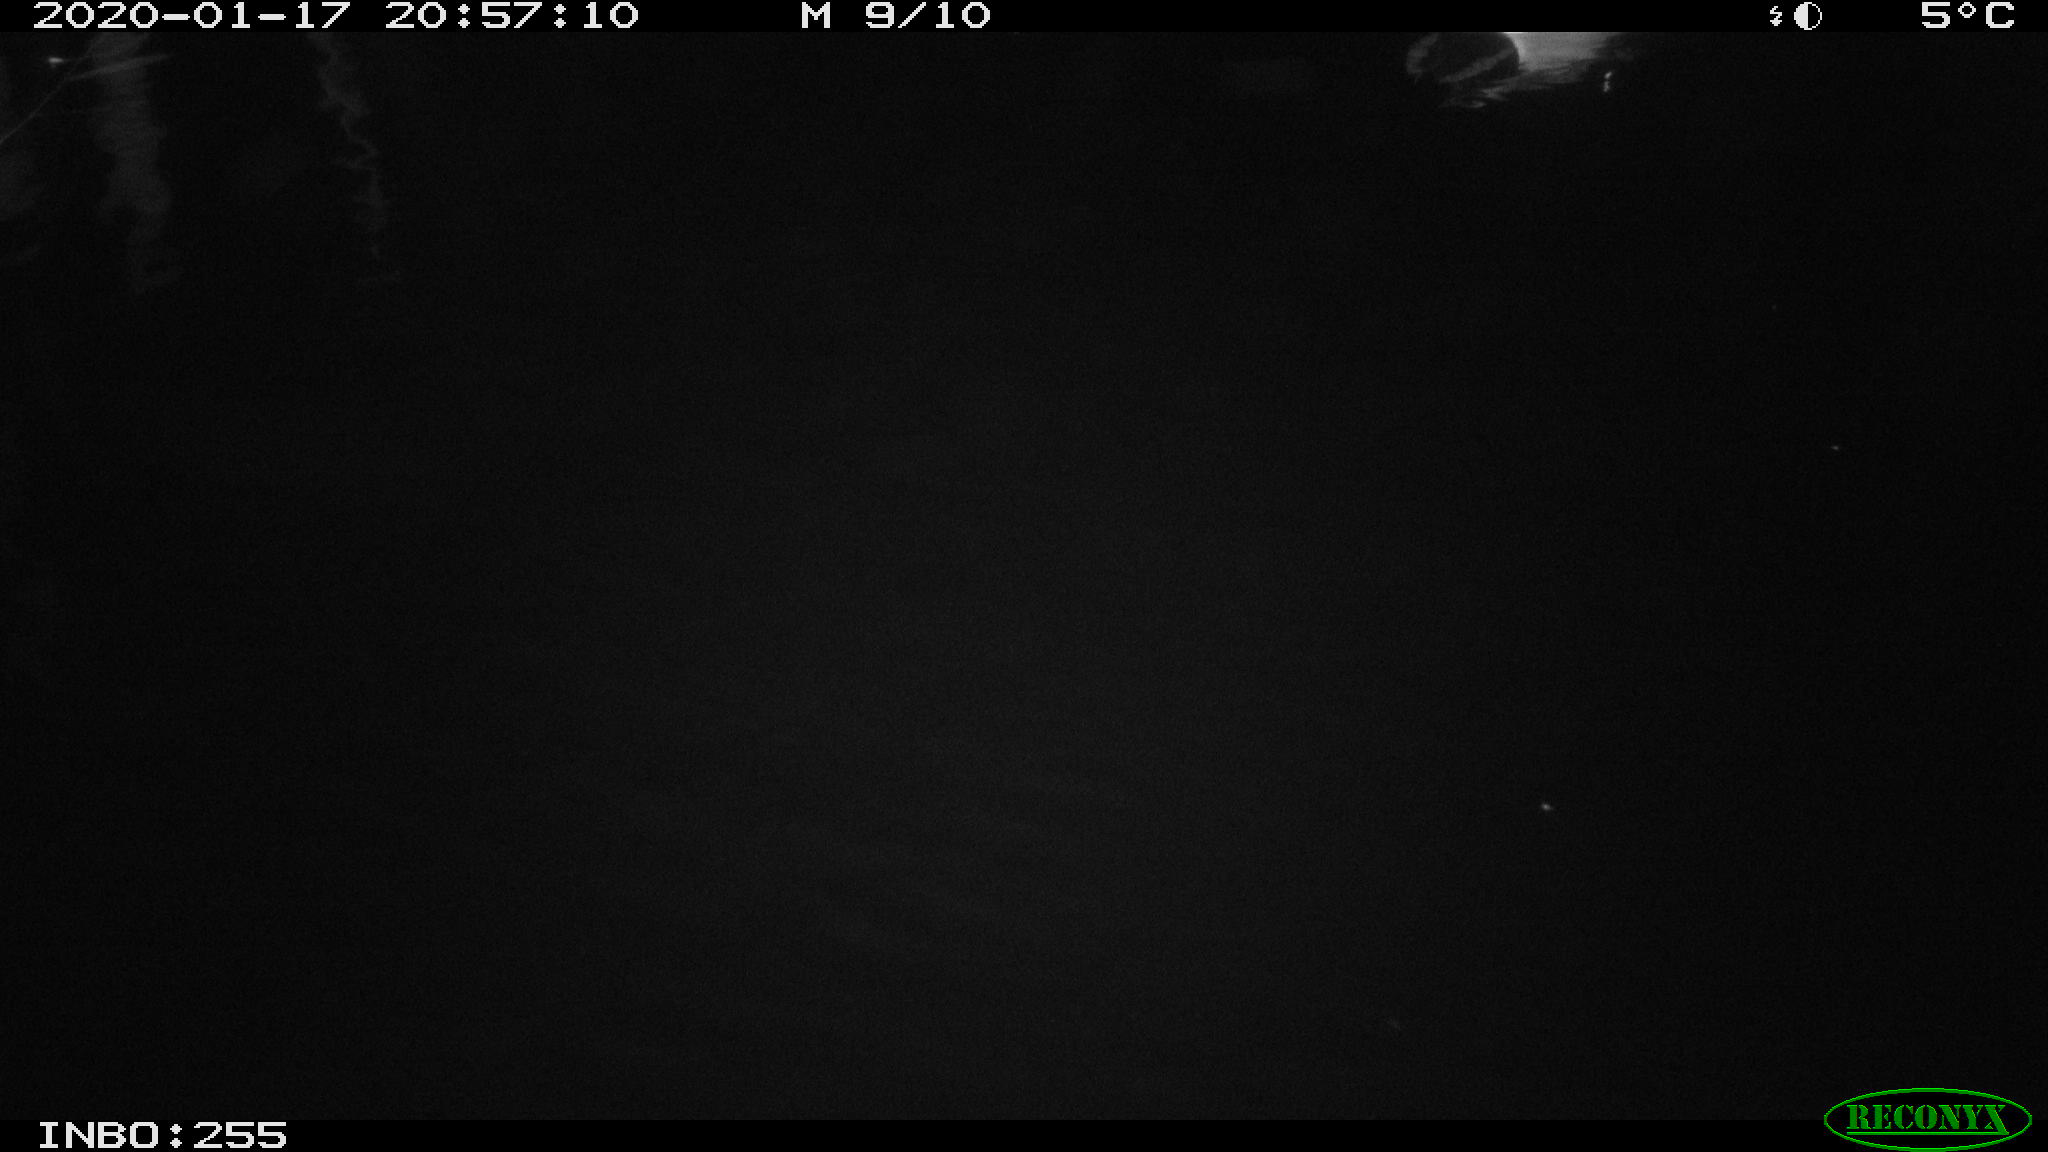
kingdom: Animalia
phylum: Chordata
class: Aves
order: Gruiformes
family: Rallidae
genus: Gallinula
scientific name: Gallinula chloropus
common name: Common moorhen
